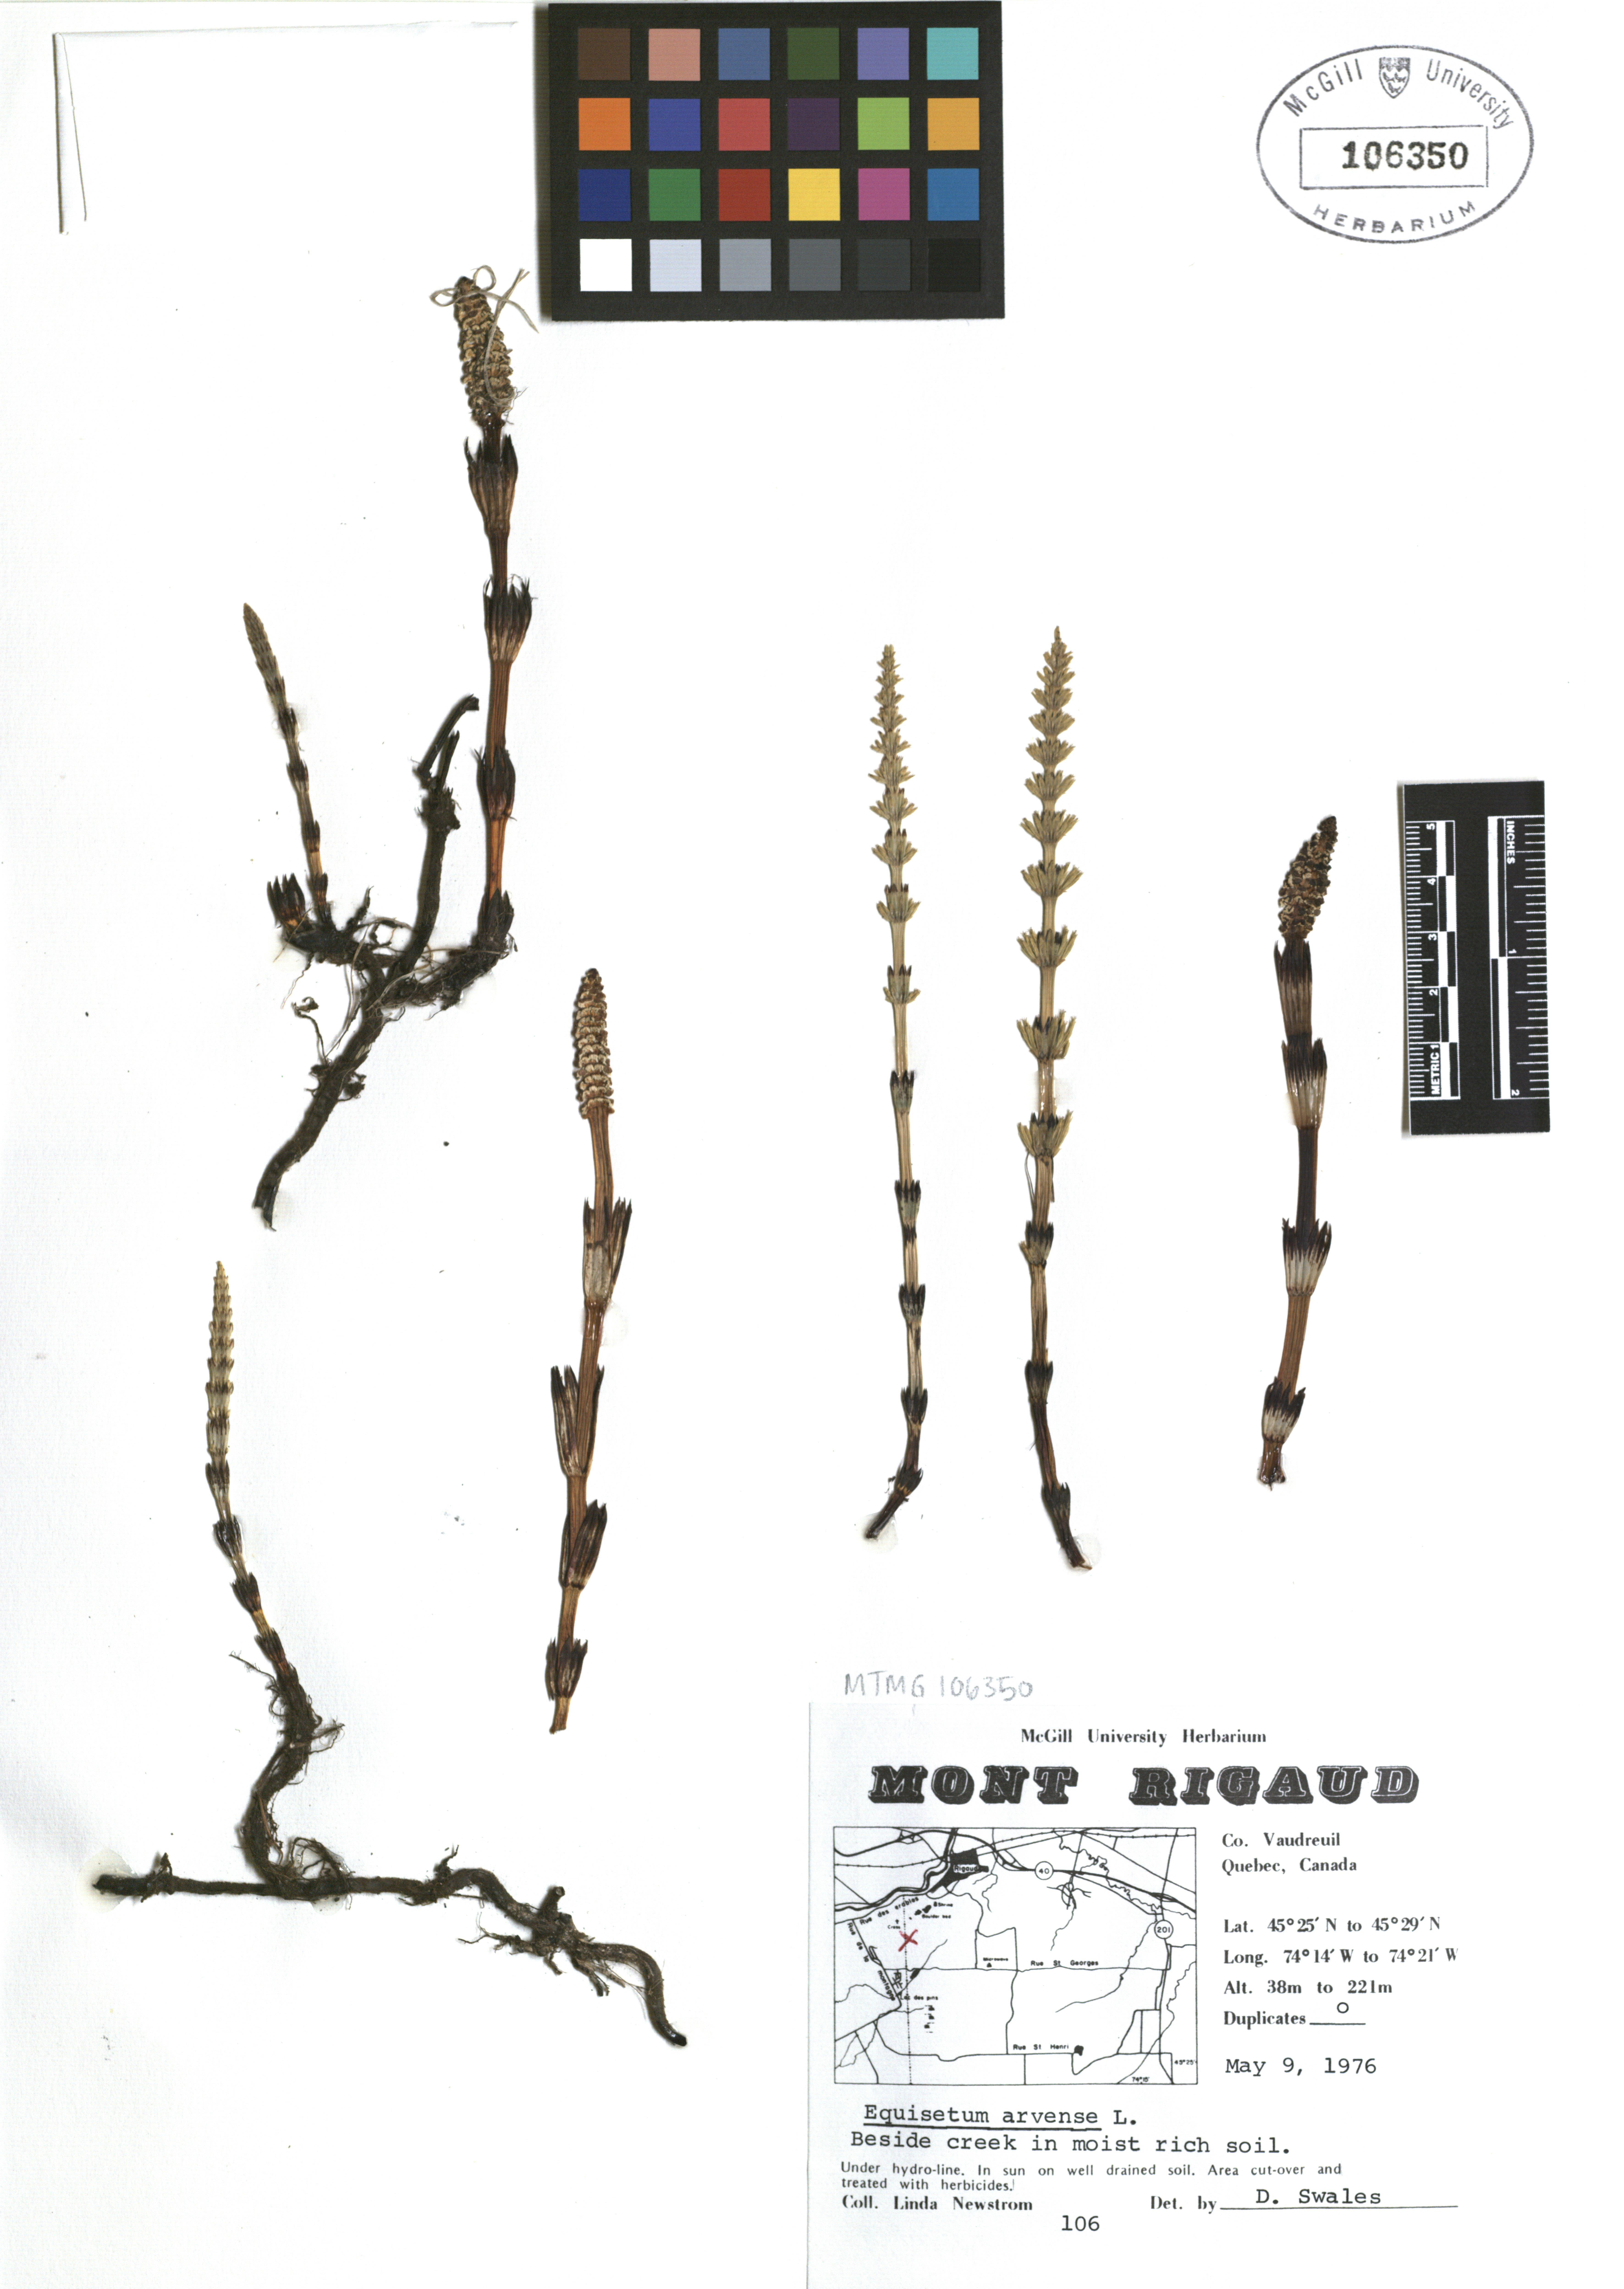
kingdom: Plantae
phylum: Tracheophyta
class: Polypodiopsida
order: Equisetales
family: Equisetaceae
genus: Equisetum
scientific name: Equisetum arvense
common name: Field horsetail
